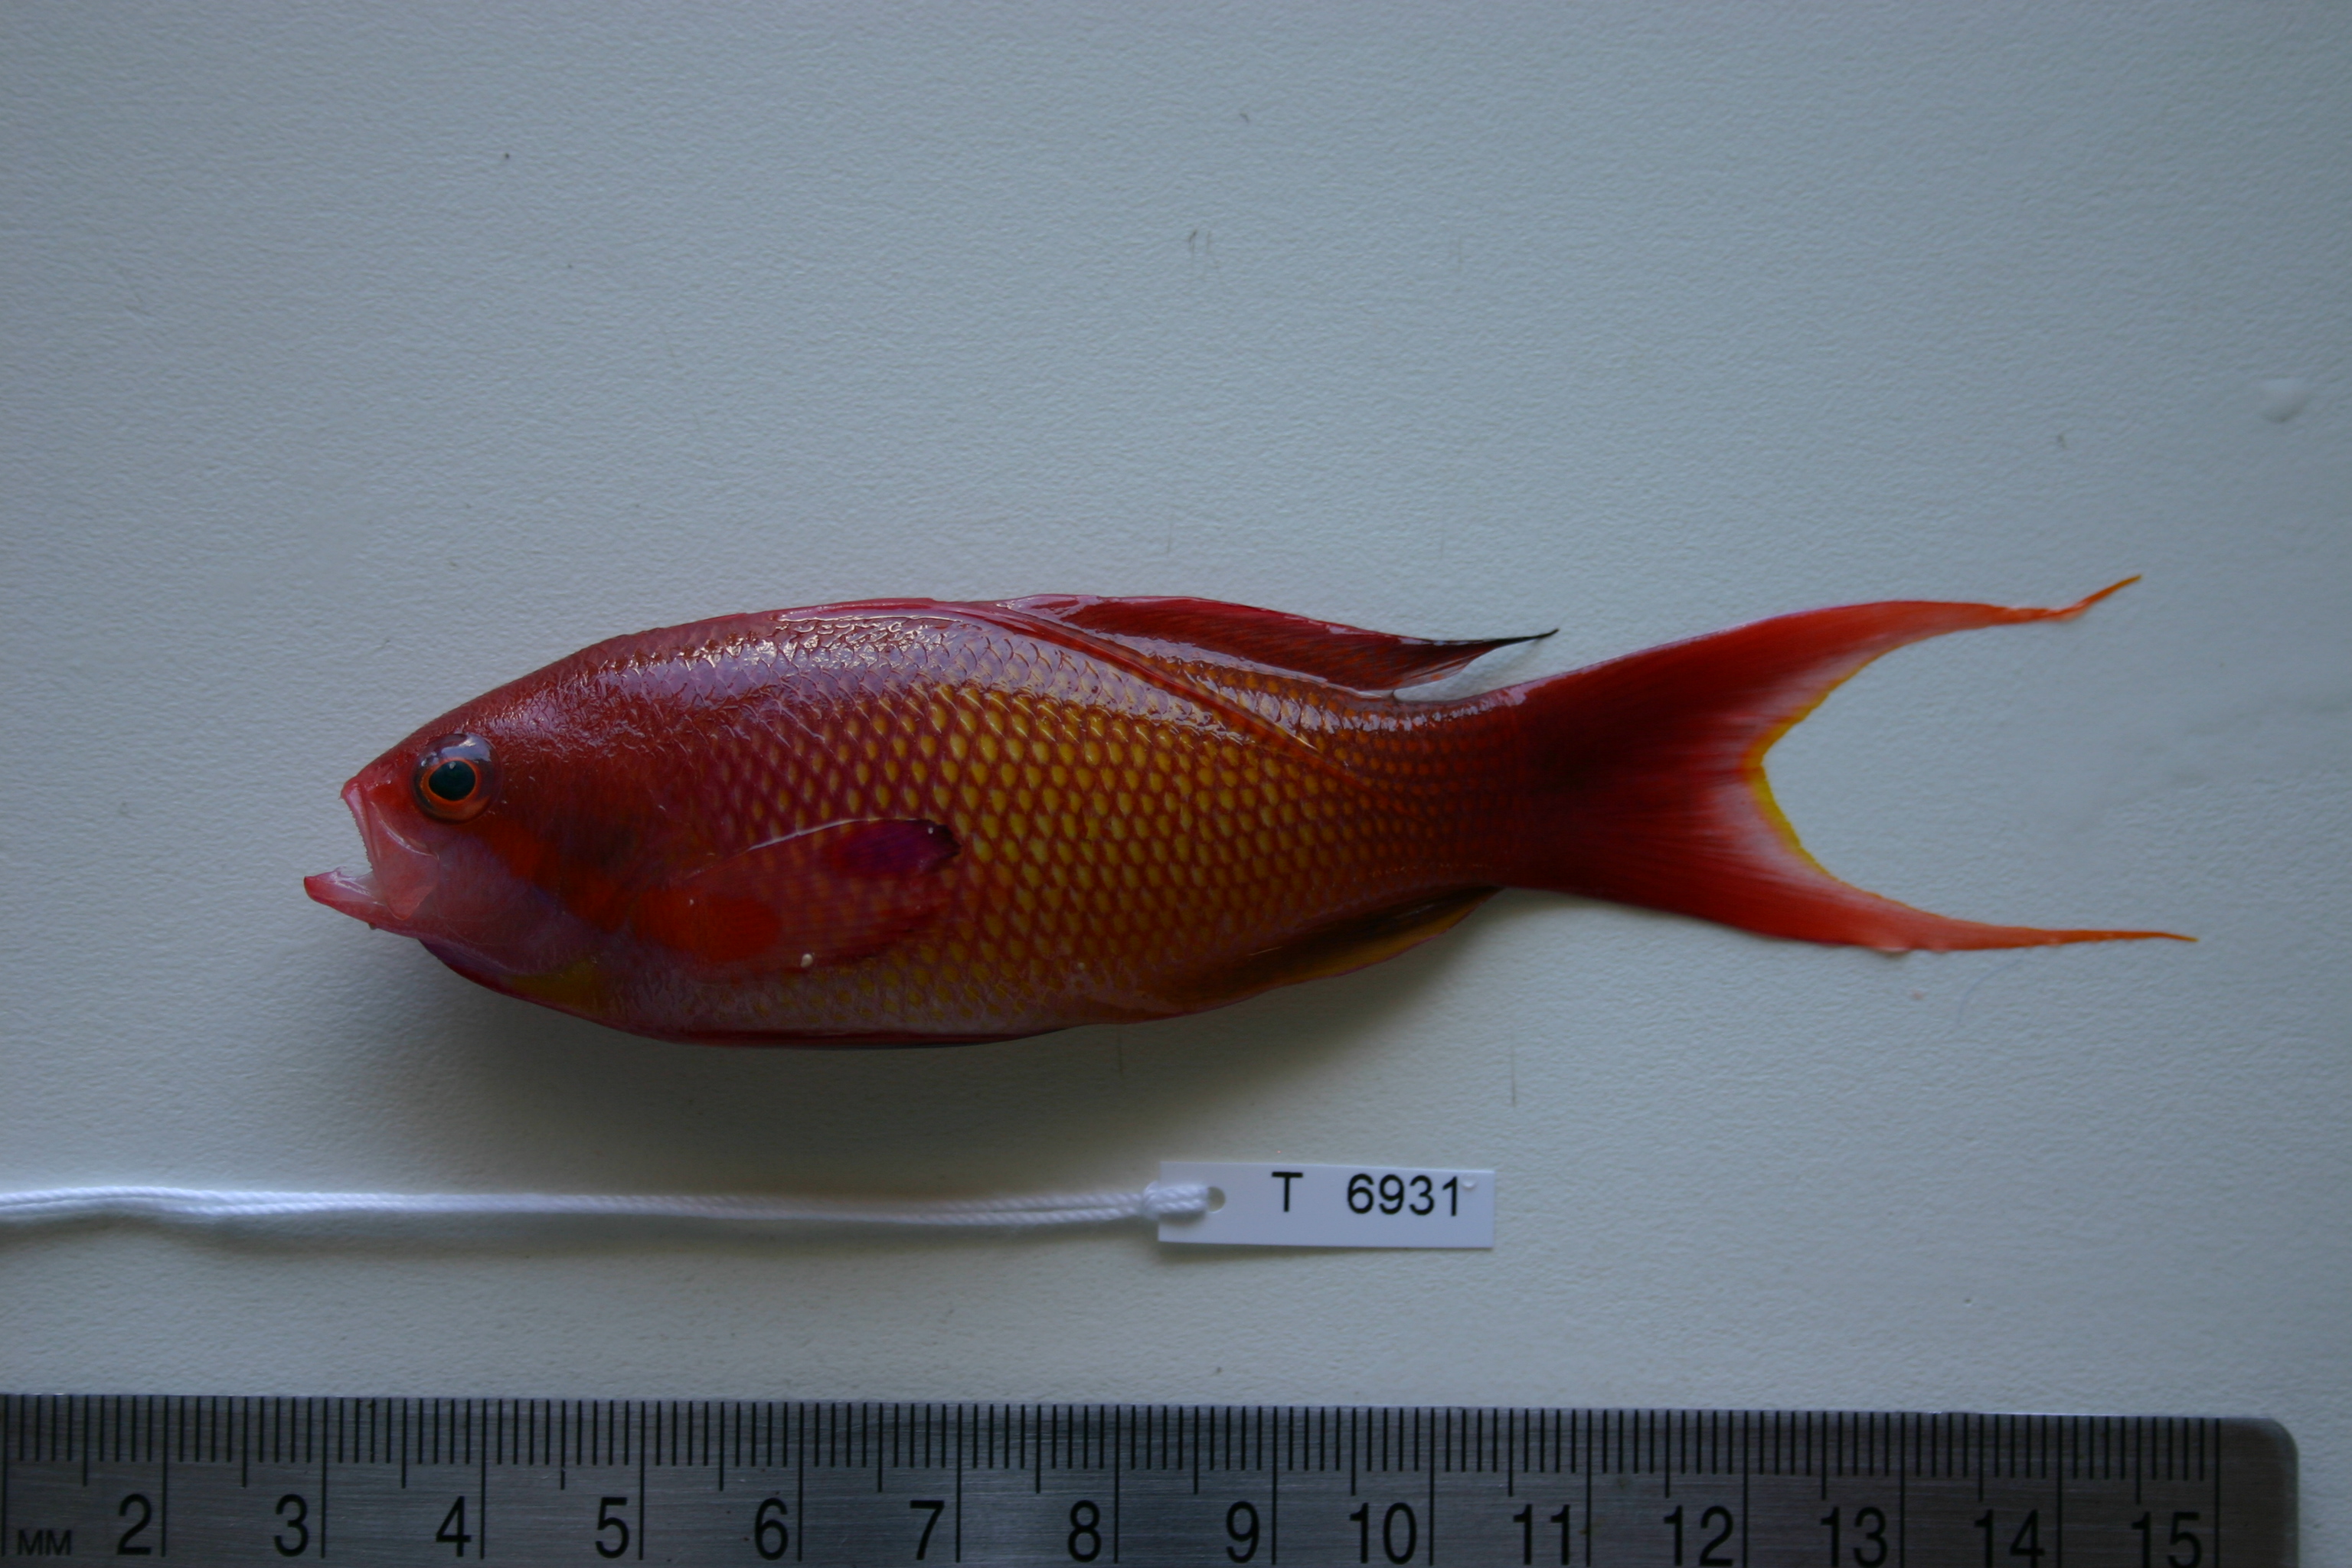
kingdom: Animalia
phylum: Chordata
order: Perciformes
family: Serranidae
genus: Pseudanthias
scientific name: Pseudanthias squamipinnis
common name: Scalefin anthias
